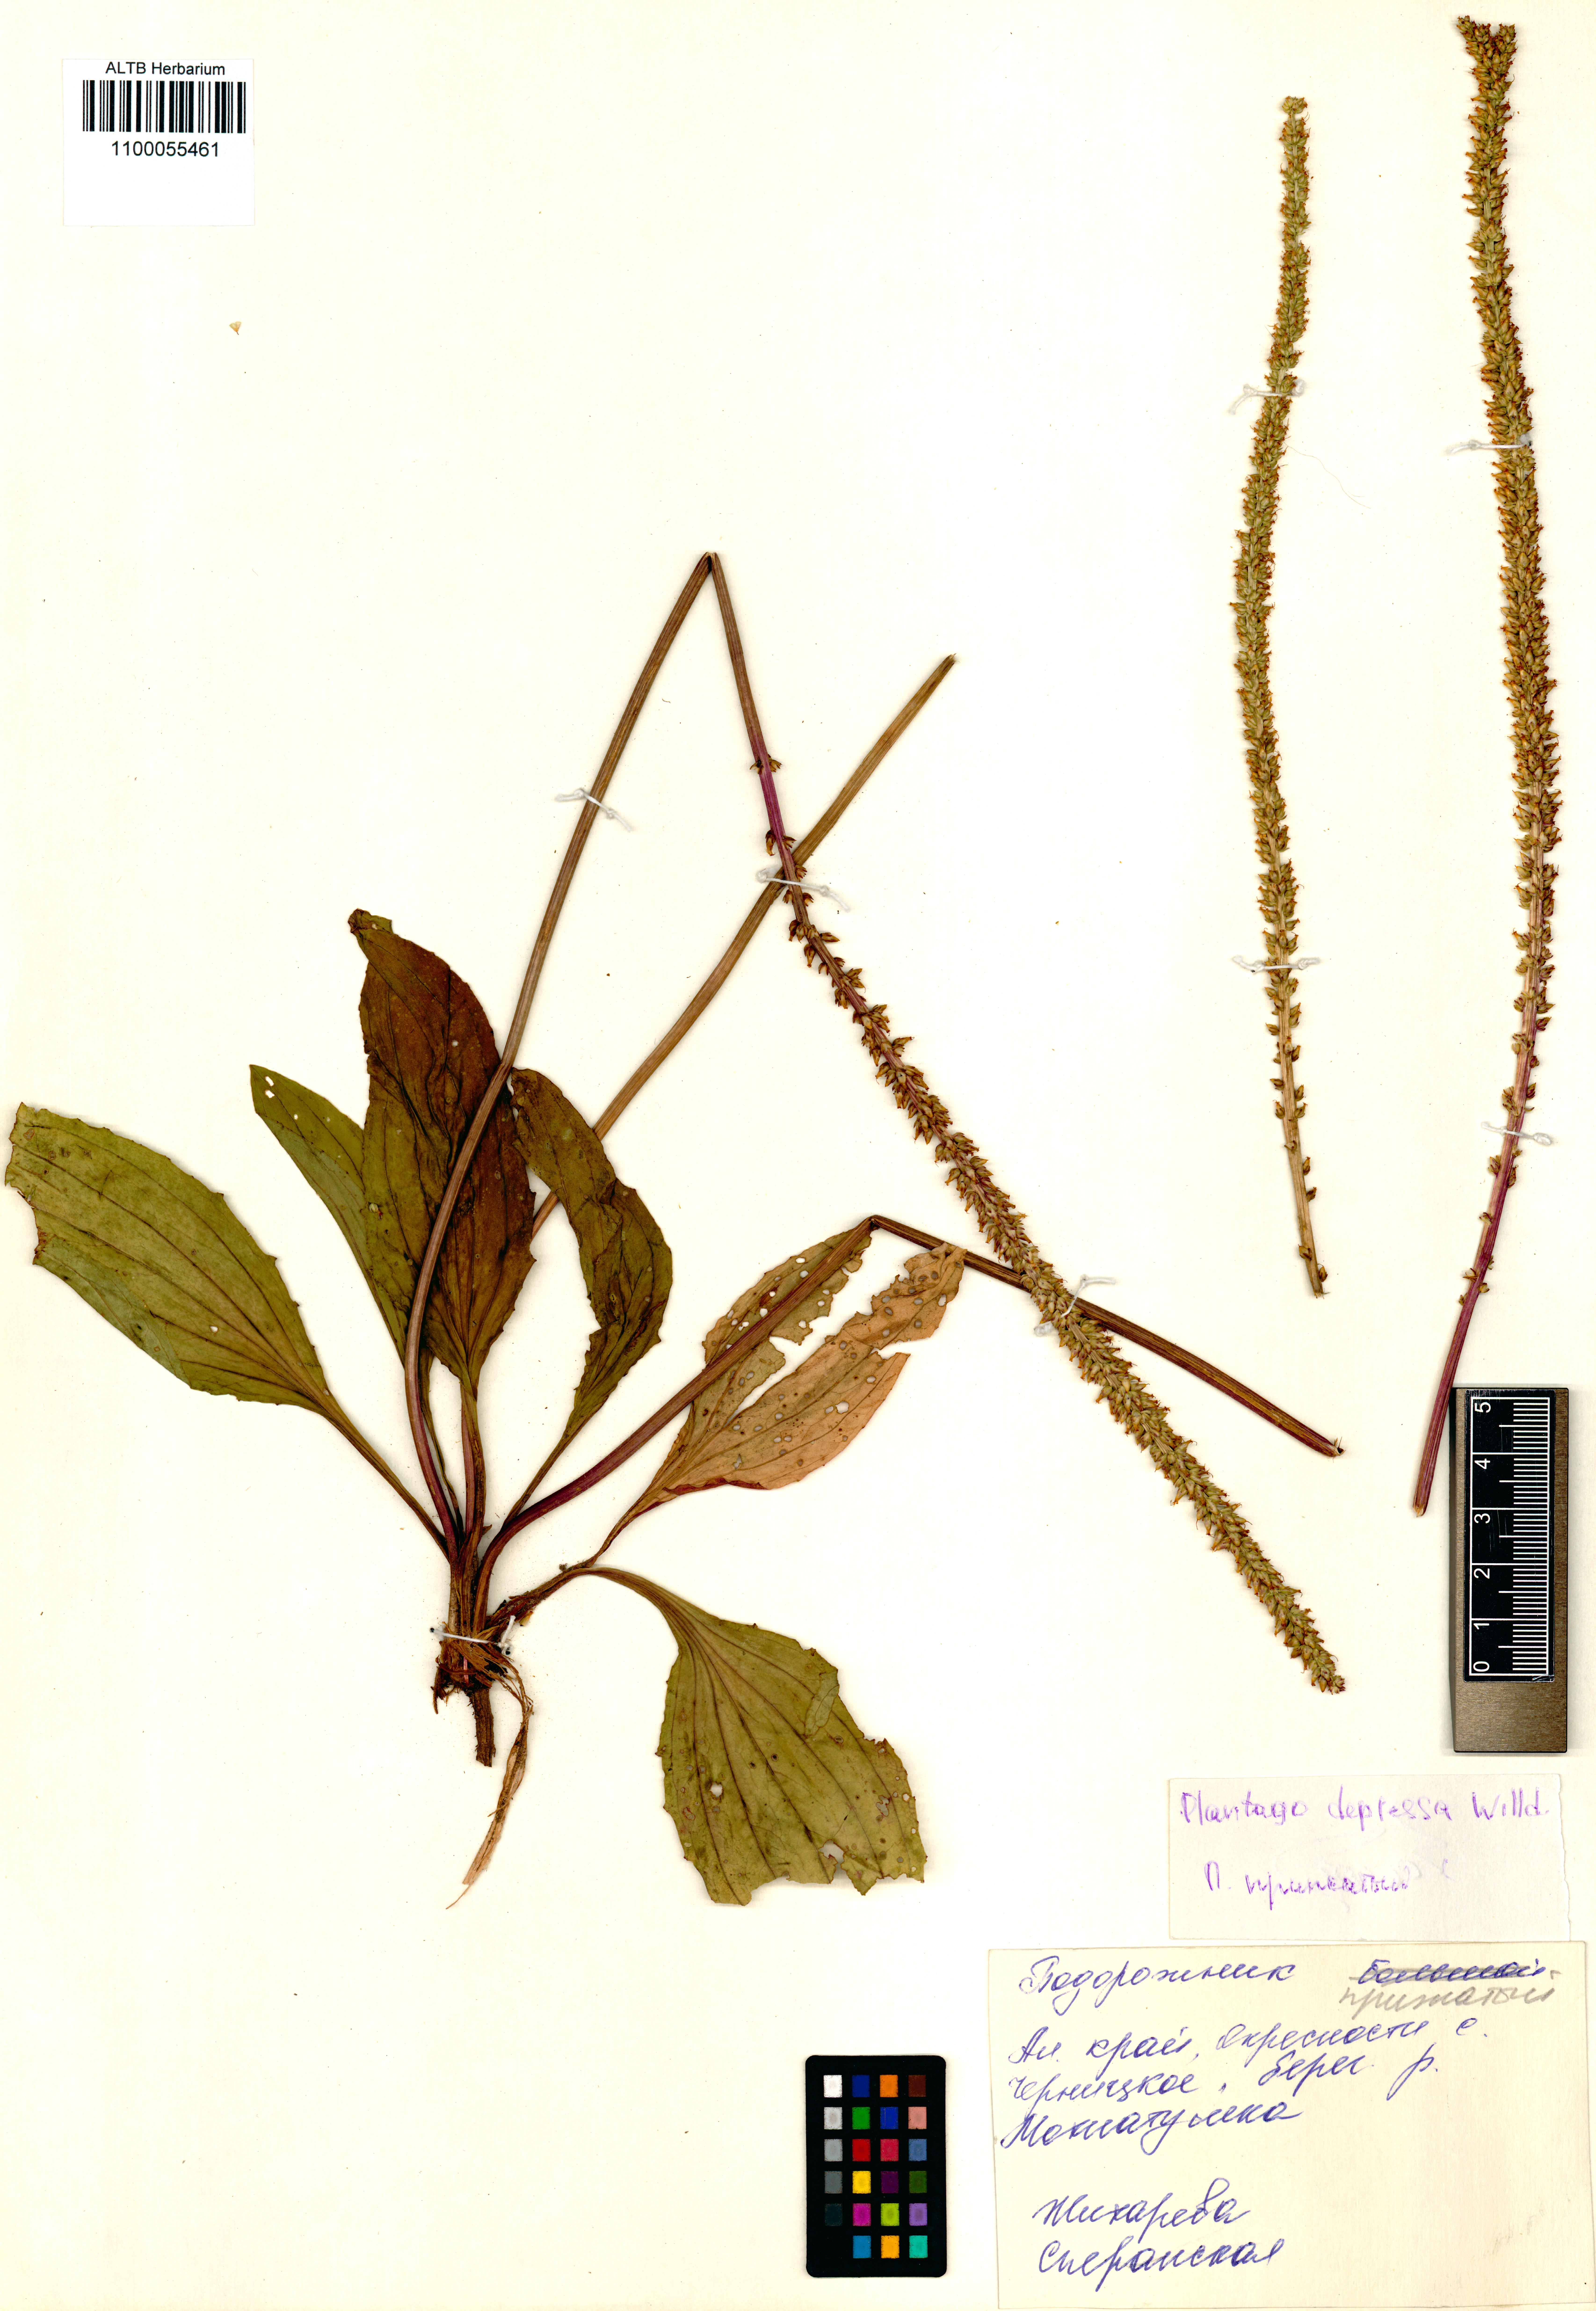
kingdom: Plantae
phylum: Tracheophyta
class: Magnoliopsida
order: Lamiales
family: Plantaginaceae
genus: Plantago
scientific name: Plantago depressa
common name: Depressed plantain
